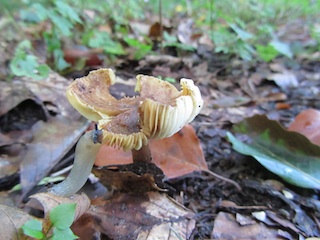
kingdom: Fungi
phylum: Basidiomycota
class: Agaricomycetes
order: Agaricales
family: Inocybaceae
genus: Pseudosperma
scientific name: Pseudosperma rimosum
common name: gulbladet trævlhat
